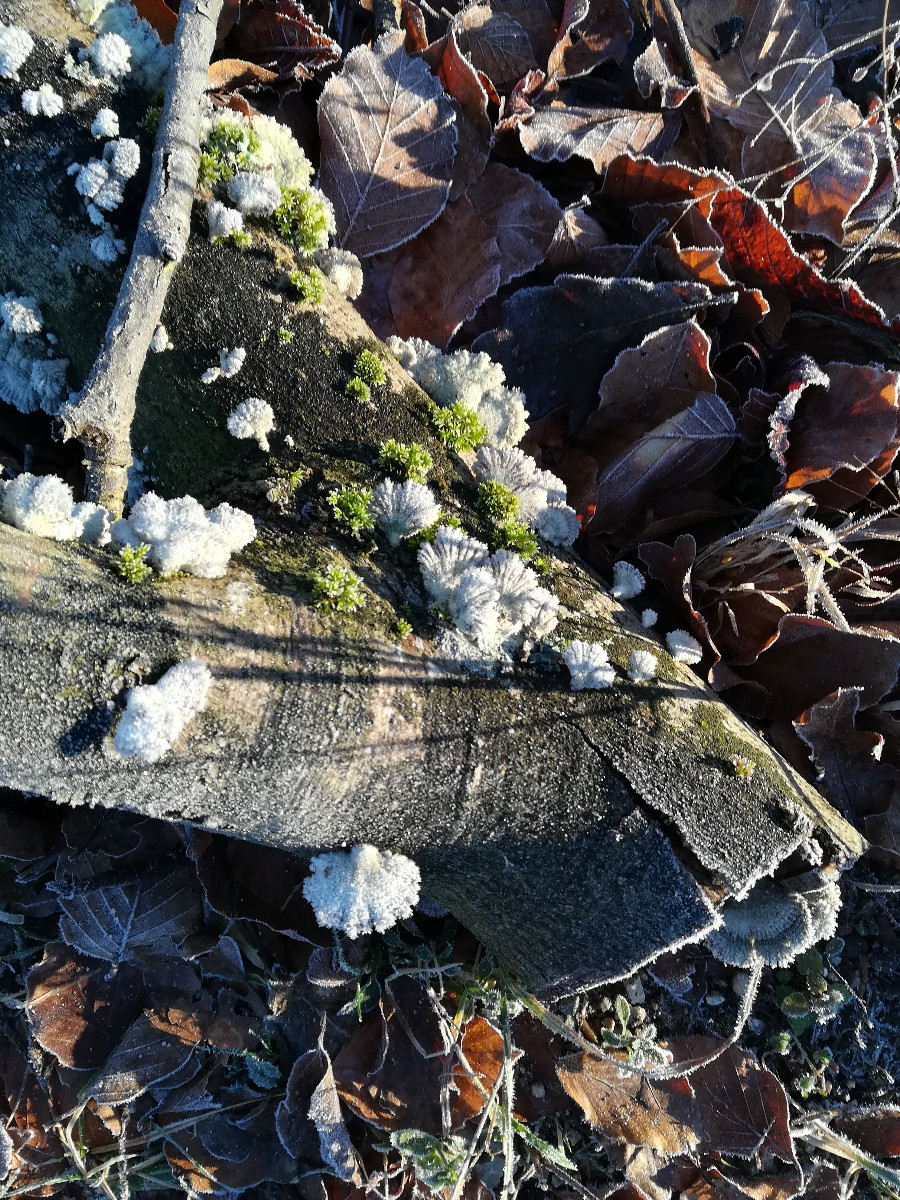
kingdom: Fungi
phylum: Basidiomycota
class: Agaricomycetes
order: Agaricales
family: Schizophyllaceae
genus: Schizophyllum
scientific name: Schizophyllum commune
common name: kløvblad
